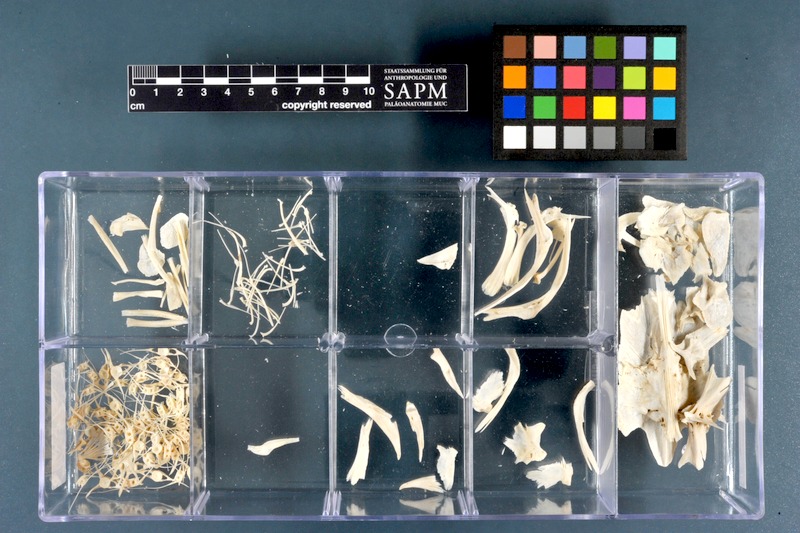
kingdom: Animalia
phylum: Chordata
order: Siluriformes
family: Clariidae
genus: Heterobranchus
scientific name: Heterobranchus bidorsalis
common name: Eel-like fattyfin catfish
